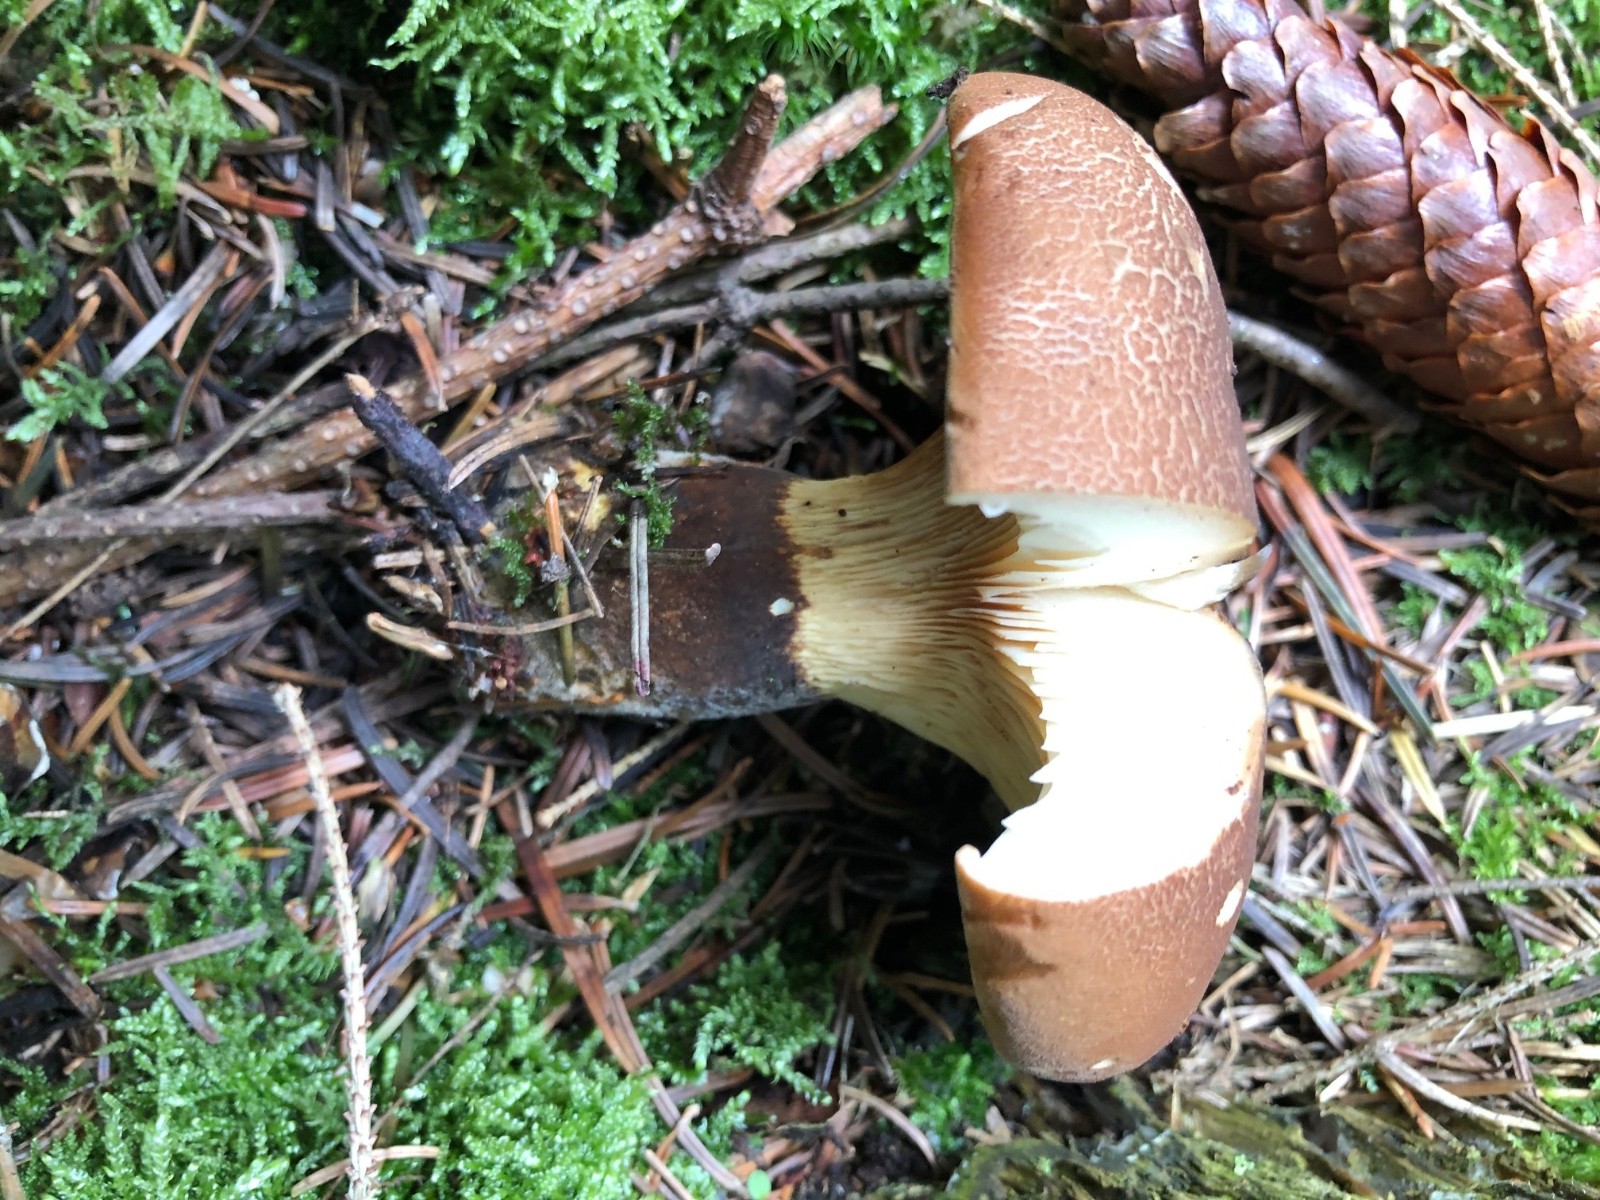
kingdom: Fungi
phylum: Basidiomycota
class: Agaricomycetes
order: Boletales
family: Tapinellaceae
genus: Tapinella
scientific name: Tapinella atrotomentosa
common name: sortfiltet viftesvamp
